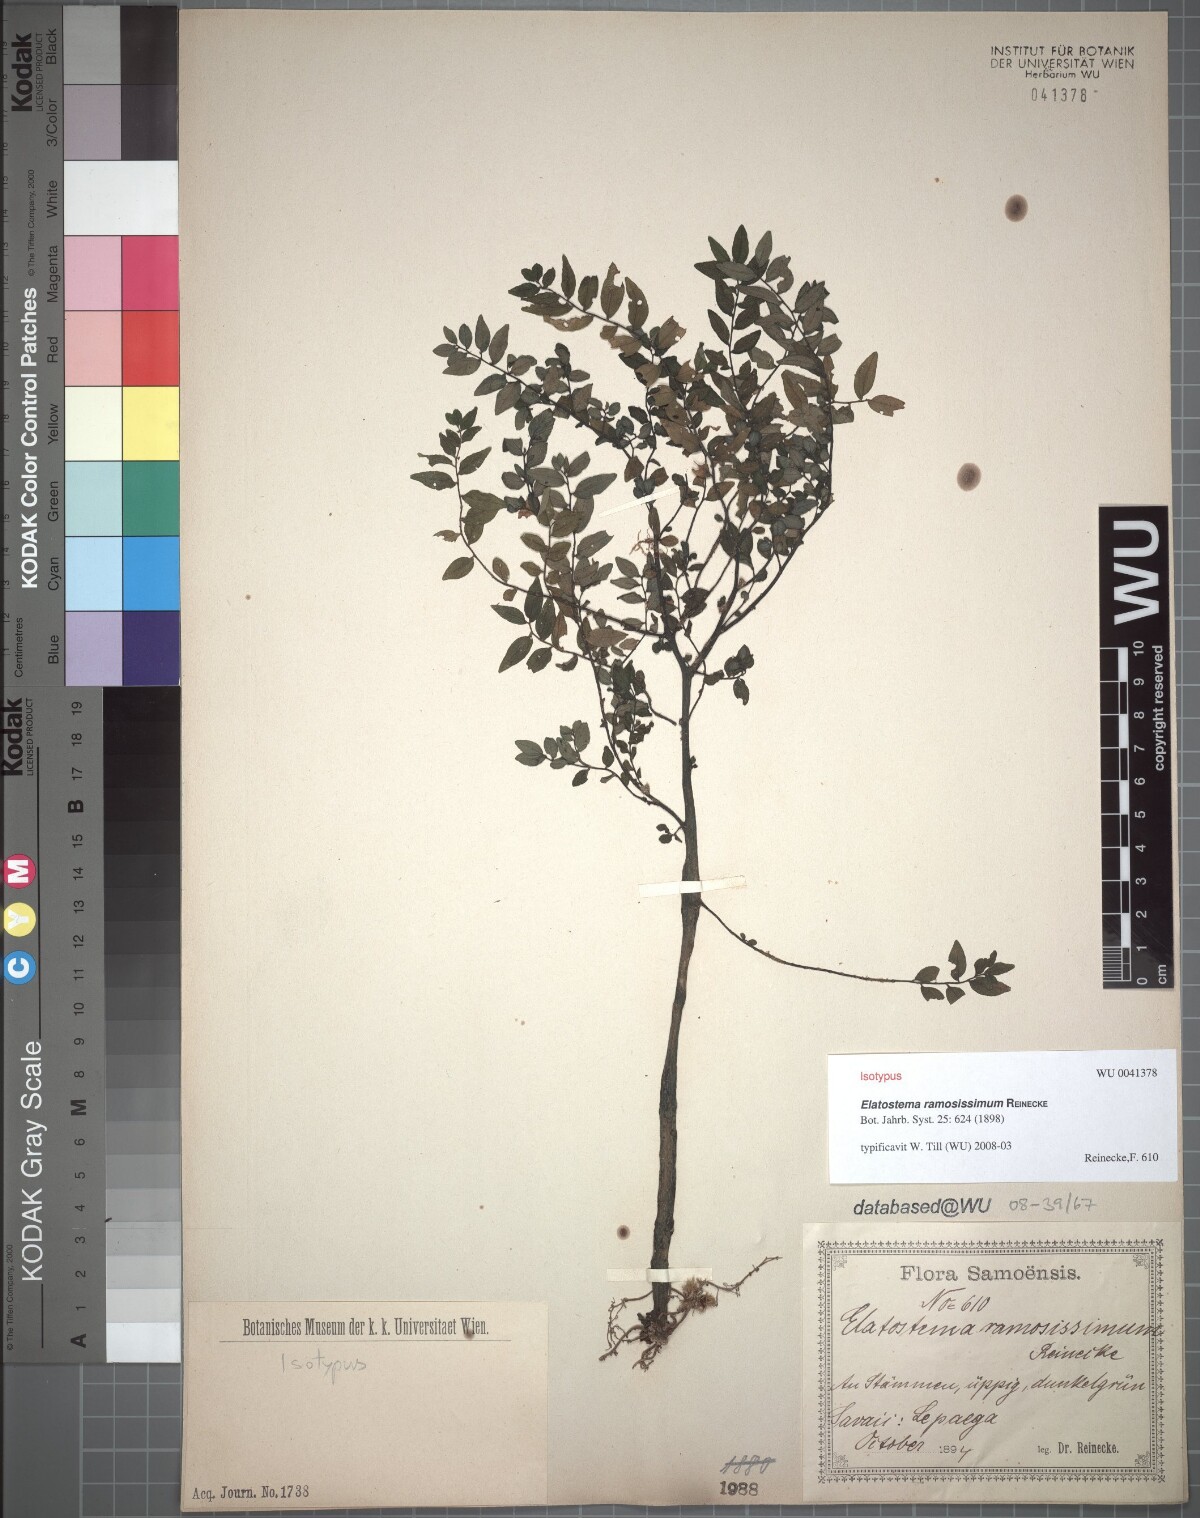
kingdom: Plantae
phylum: Tracheophyta
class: Magnoliopsida
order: Rosales
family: Urticaceae
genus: Elatostema
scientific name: Elatostema ramosissimum
